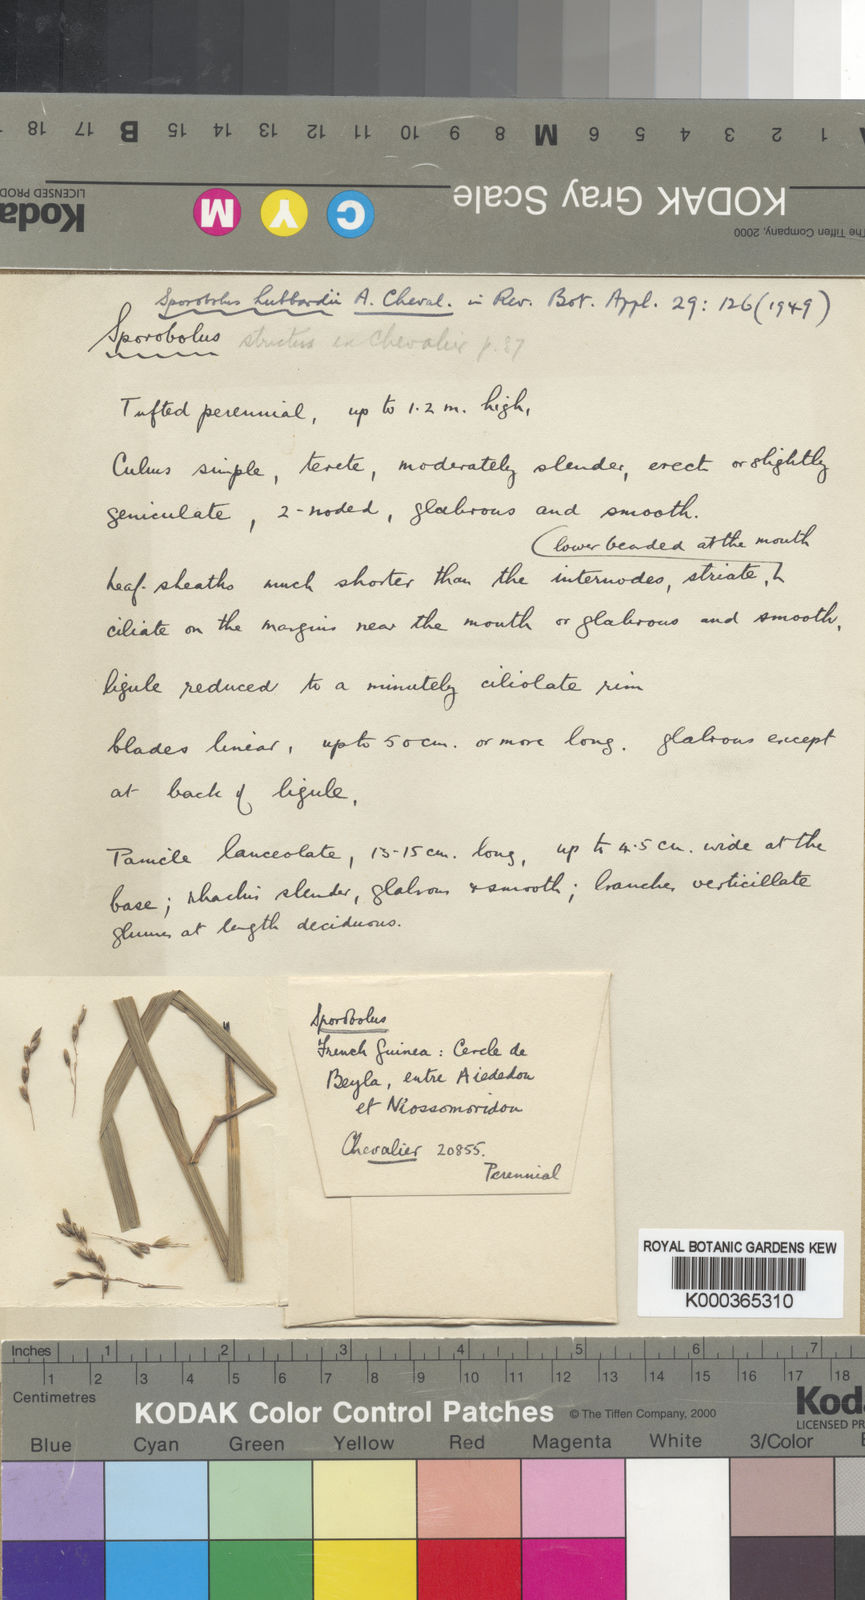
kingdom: Plantae
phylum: Tracheophyta
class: Liliopsida
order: Poales
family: Poaceae
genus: Sporobolus
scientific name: Sporobolus
